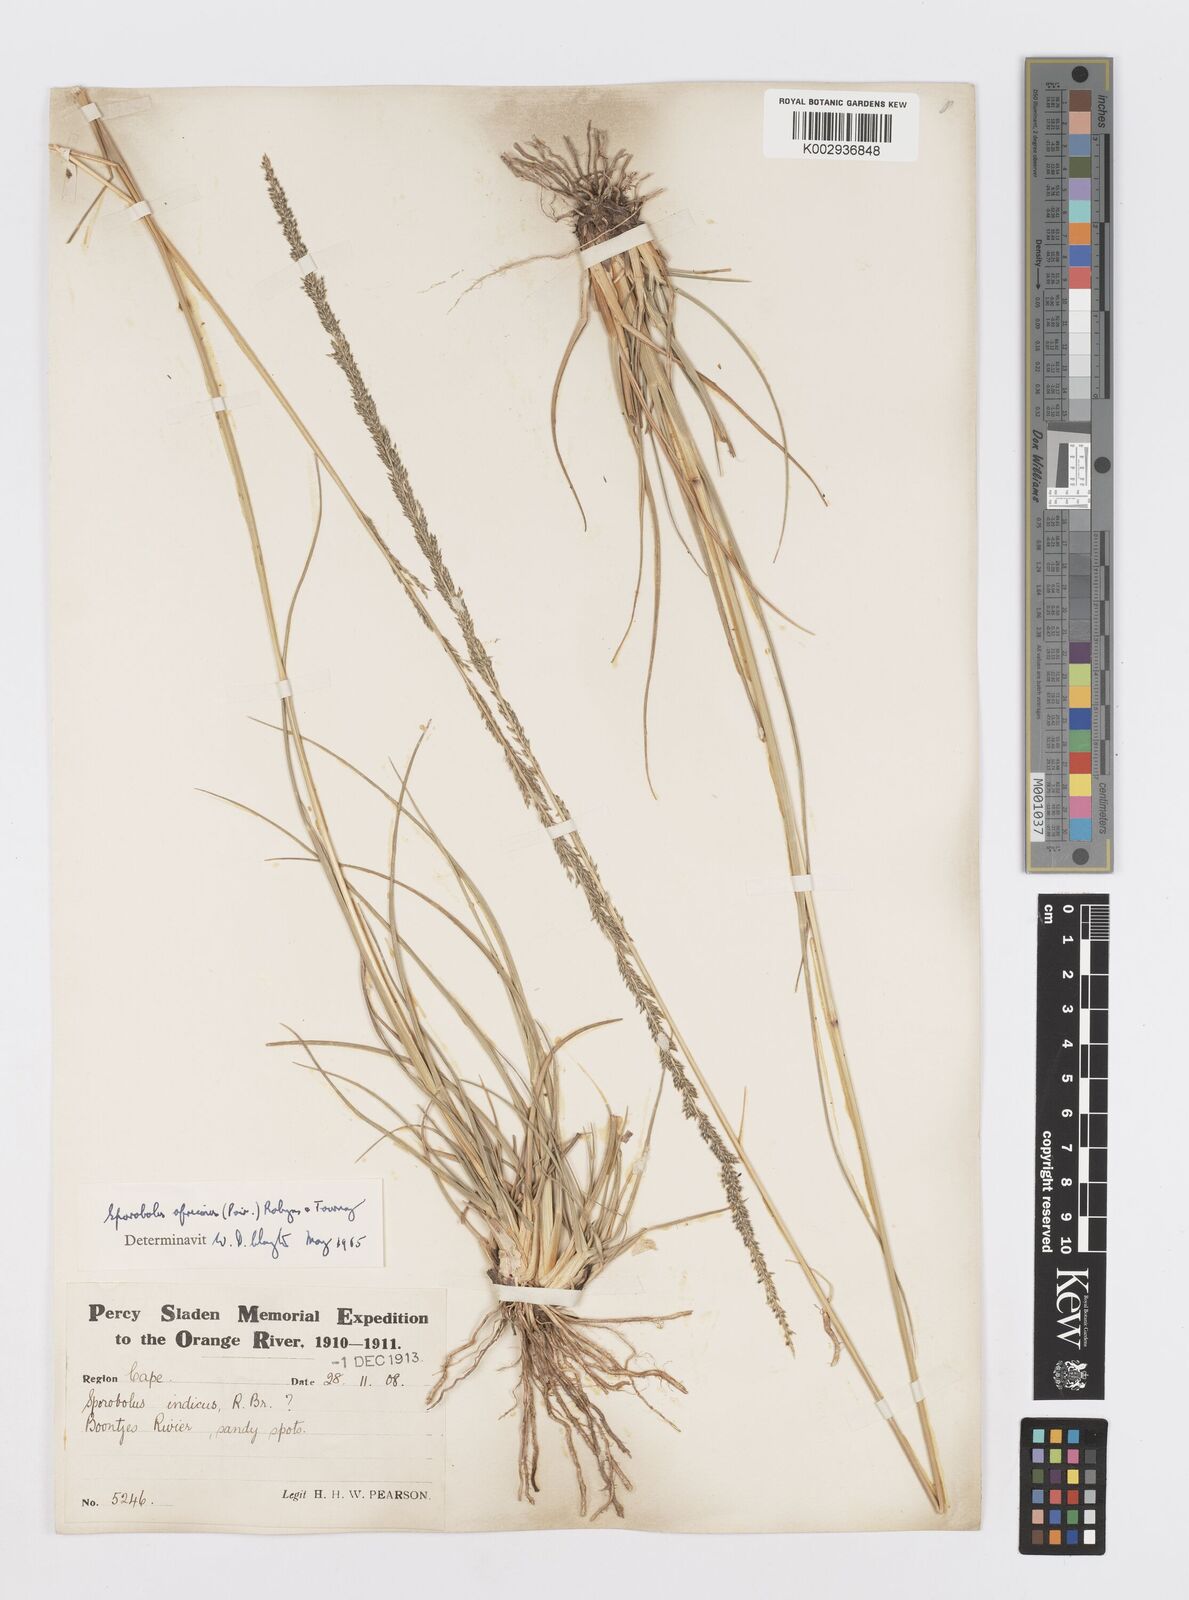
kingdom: Plantae
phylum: Tracheophyta
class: Liliopsida
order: Poales
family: Poaceae
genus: Sporobolus
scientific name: Sporobolus africanus
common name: African dropseed
